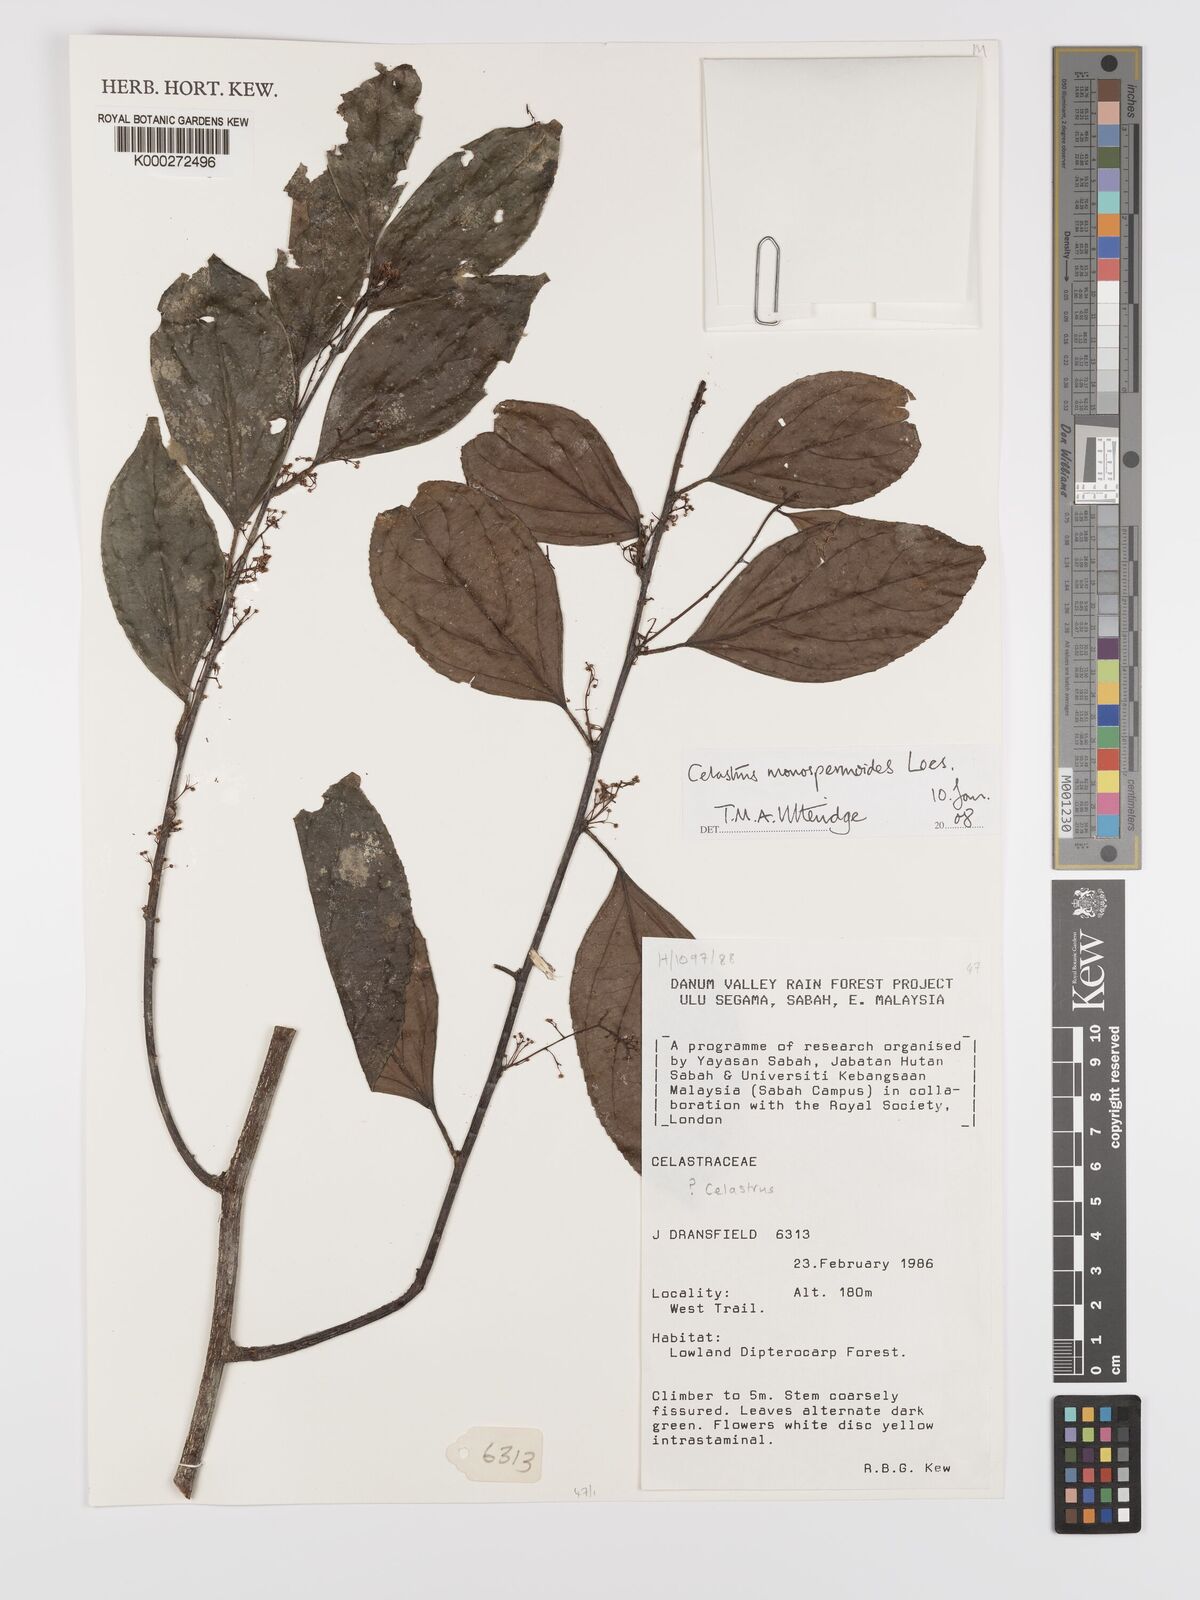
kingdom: Plantae
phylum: Tracheophyta
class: Magnoliopsida
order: Celastrales
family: Celastraceae
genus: Celastrus
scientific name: Celastrus monospermoides
